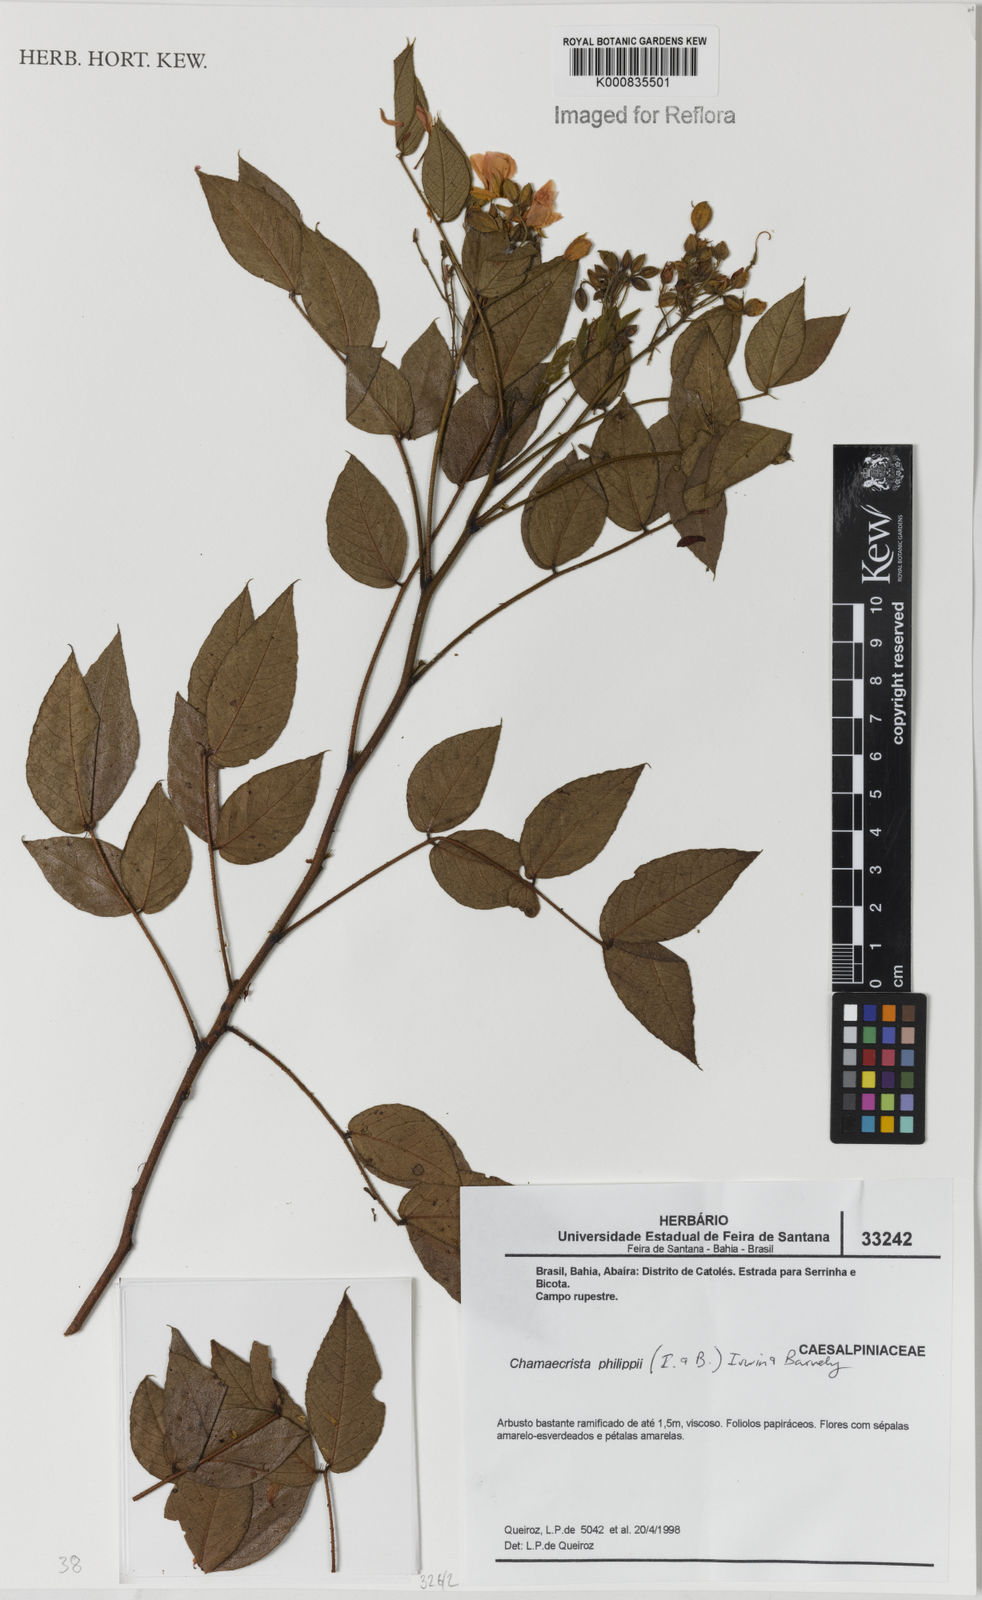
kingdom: Plantae
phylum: Tracheophyta
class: Magnoliopsida
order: Fabales
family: Fabaceae
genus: Chamaecrista
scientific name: Chamaecrista philippii
